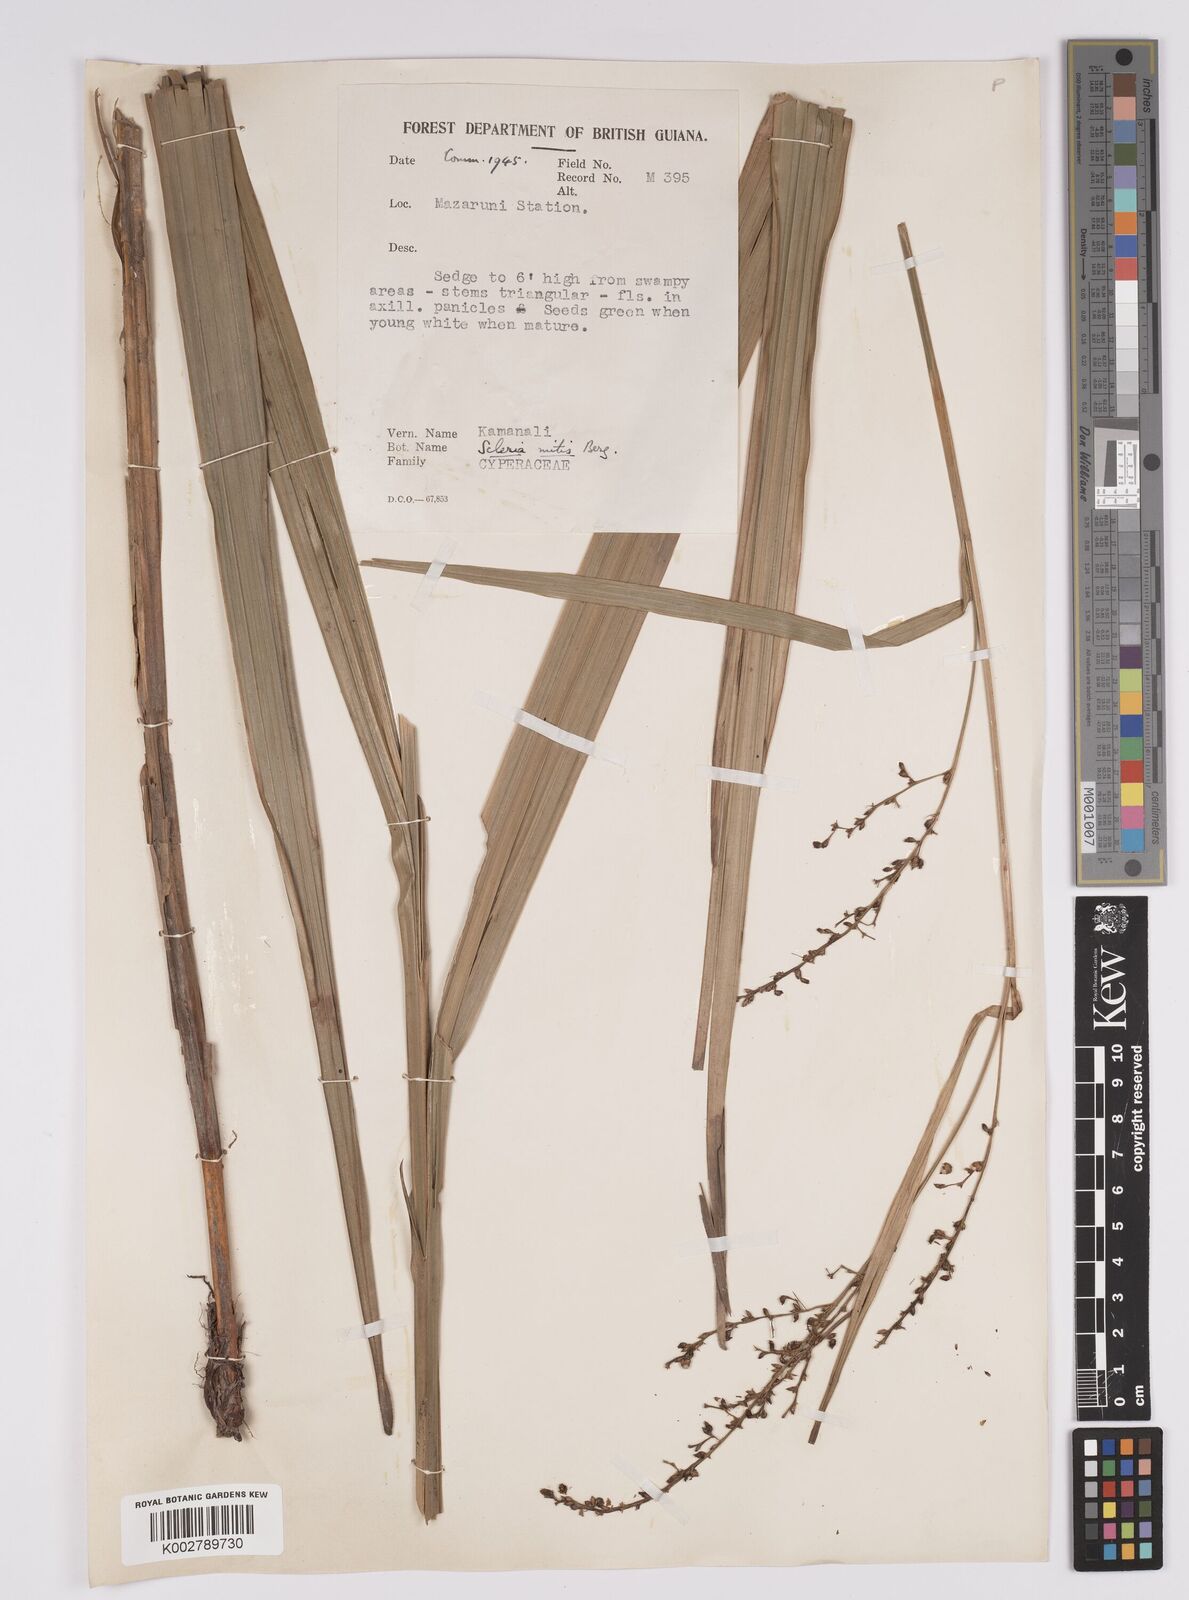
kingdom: Plantae
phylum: Tracheophyta
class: Liliopsida
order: Poales
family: Cyperaceae
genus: Scleria
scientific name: Scleria mitis
